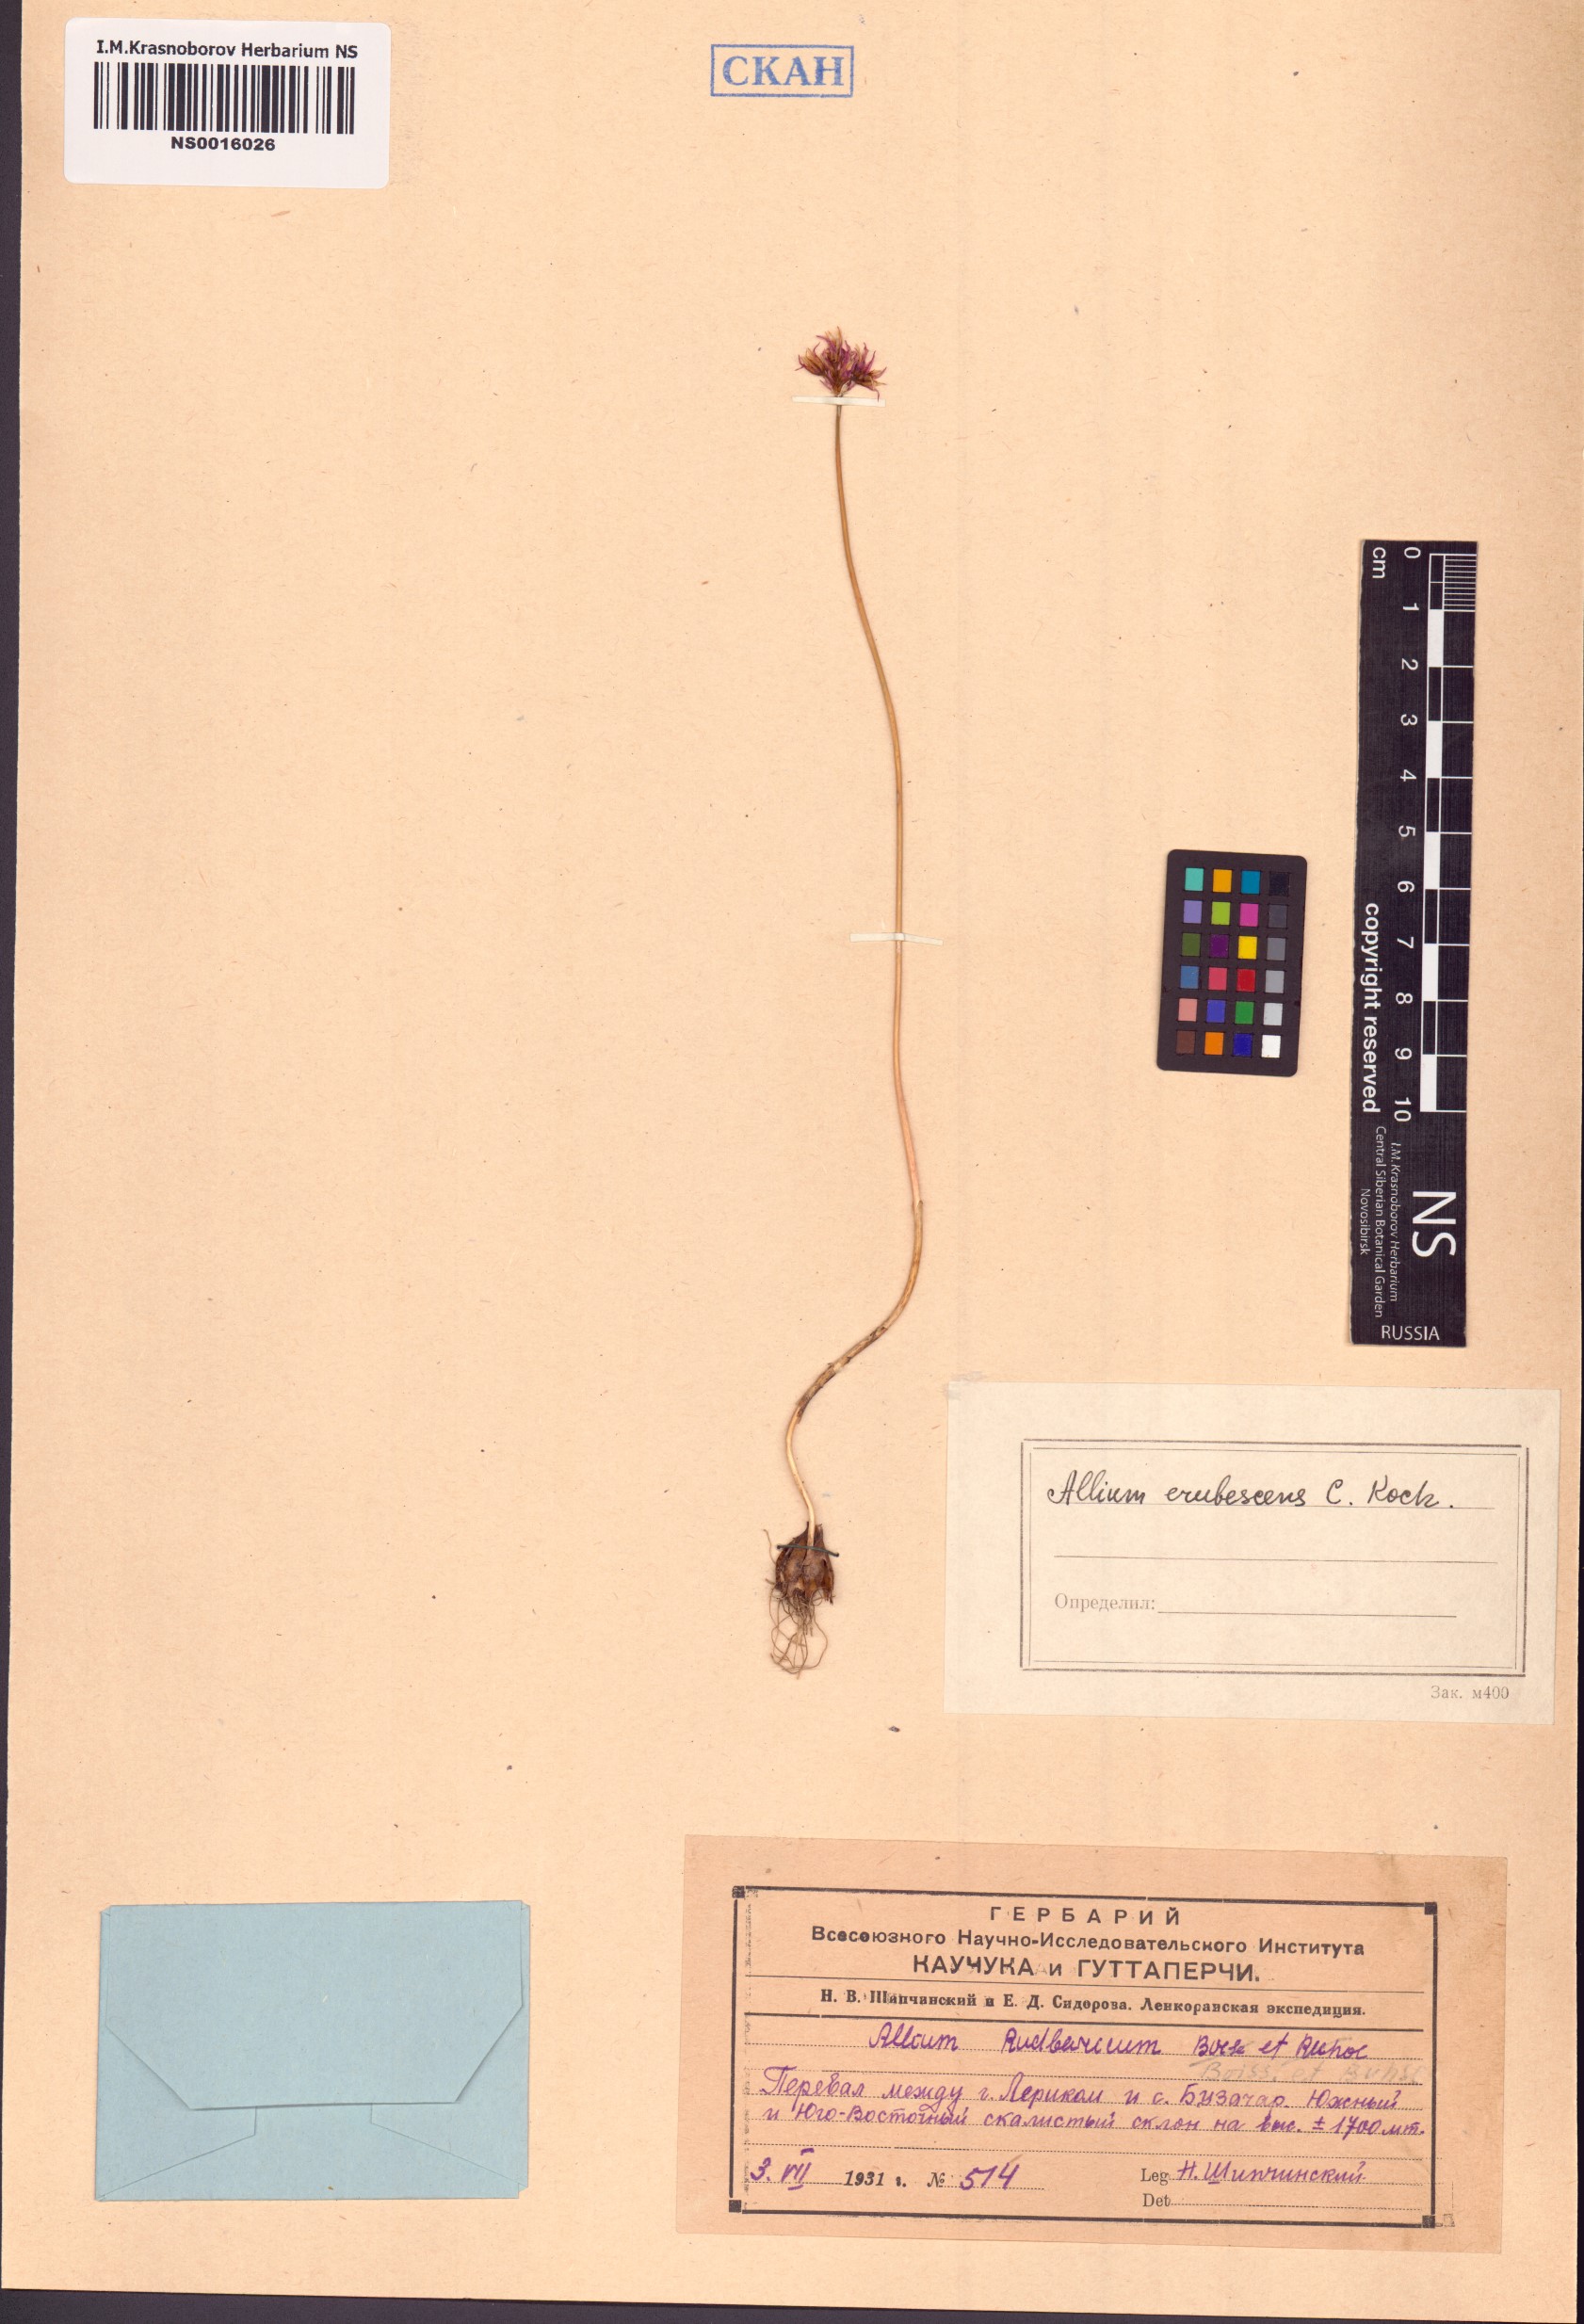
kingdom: Plantae
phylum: Tracheophyta
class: Liliopsida
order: Asparagales
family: Amaryllidaceae
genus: Allium
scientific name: Allium erubescens
